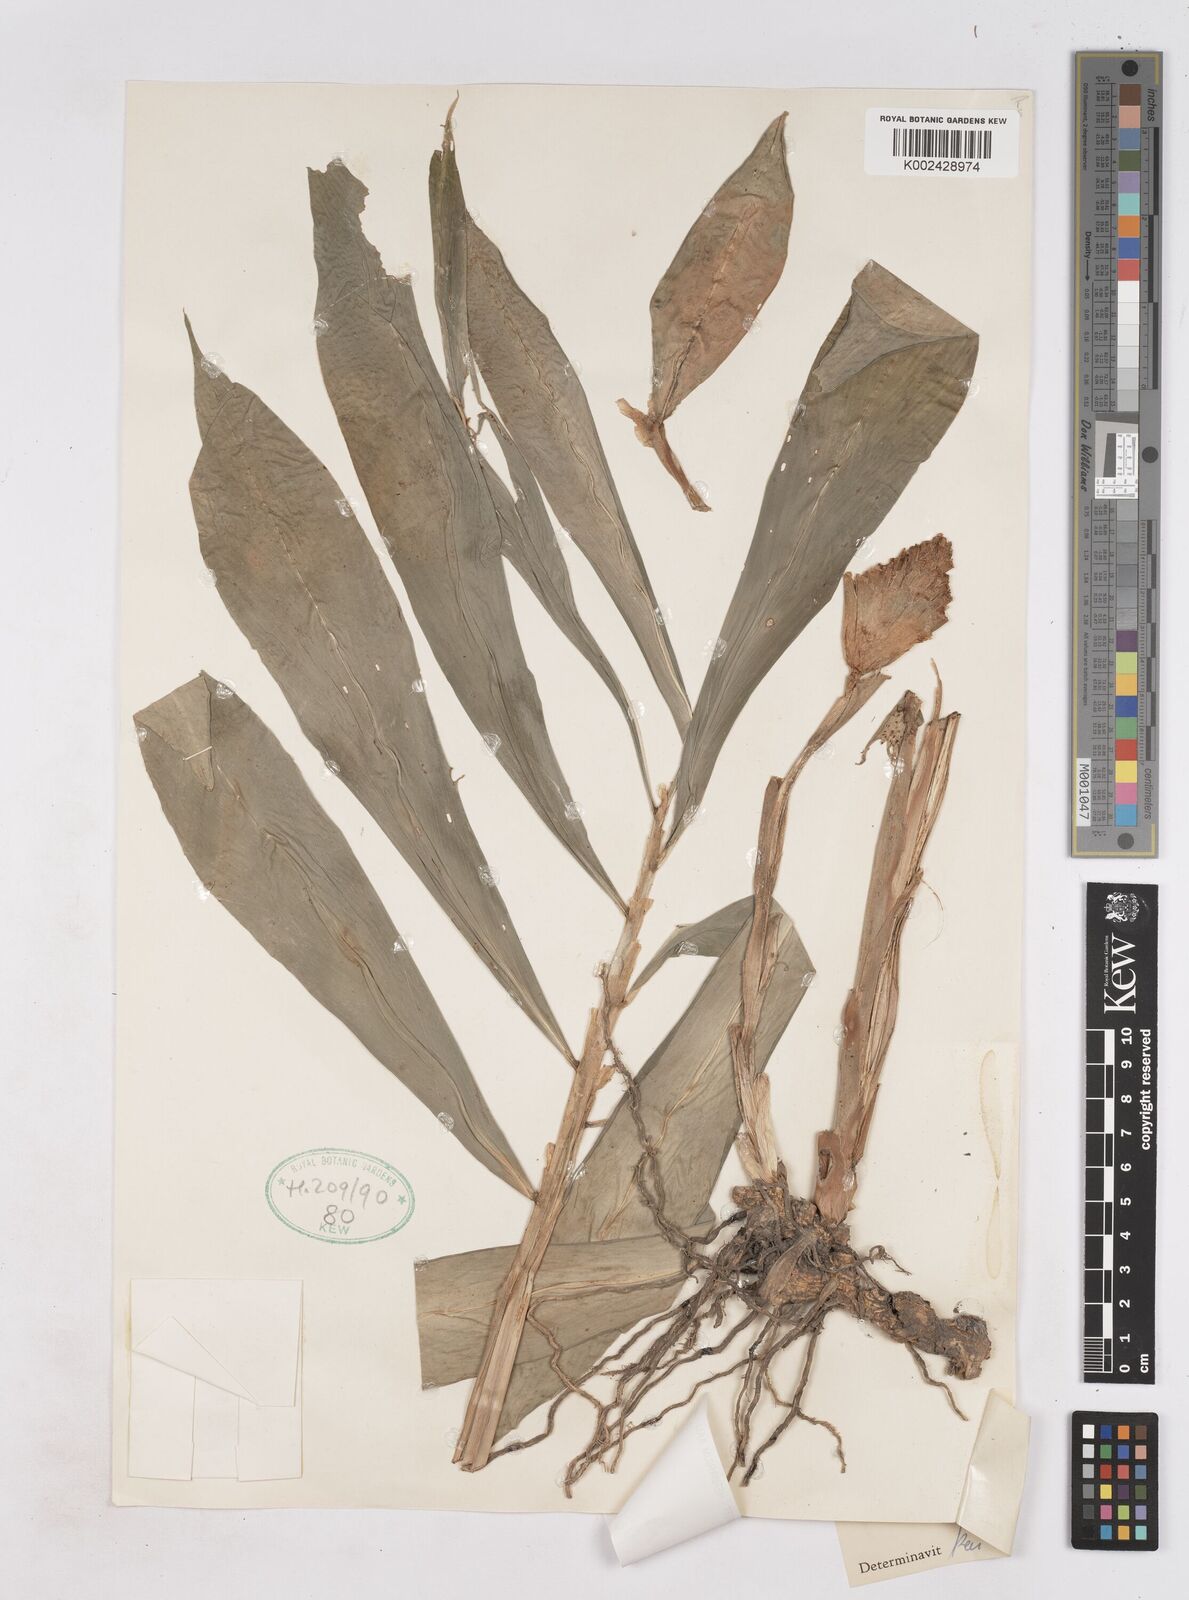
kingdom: Plantae
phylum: Tracheophyta
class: Liliopsida
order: Zingiberales
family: Zingiberaceae
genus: Zingiber
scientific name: Zingiber zerumbet
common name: Bitter ginger
